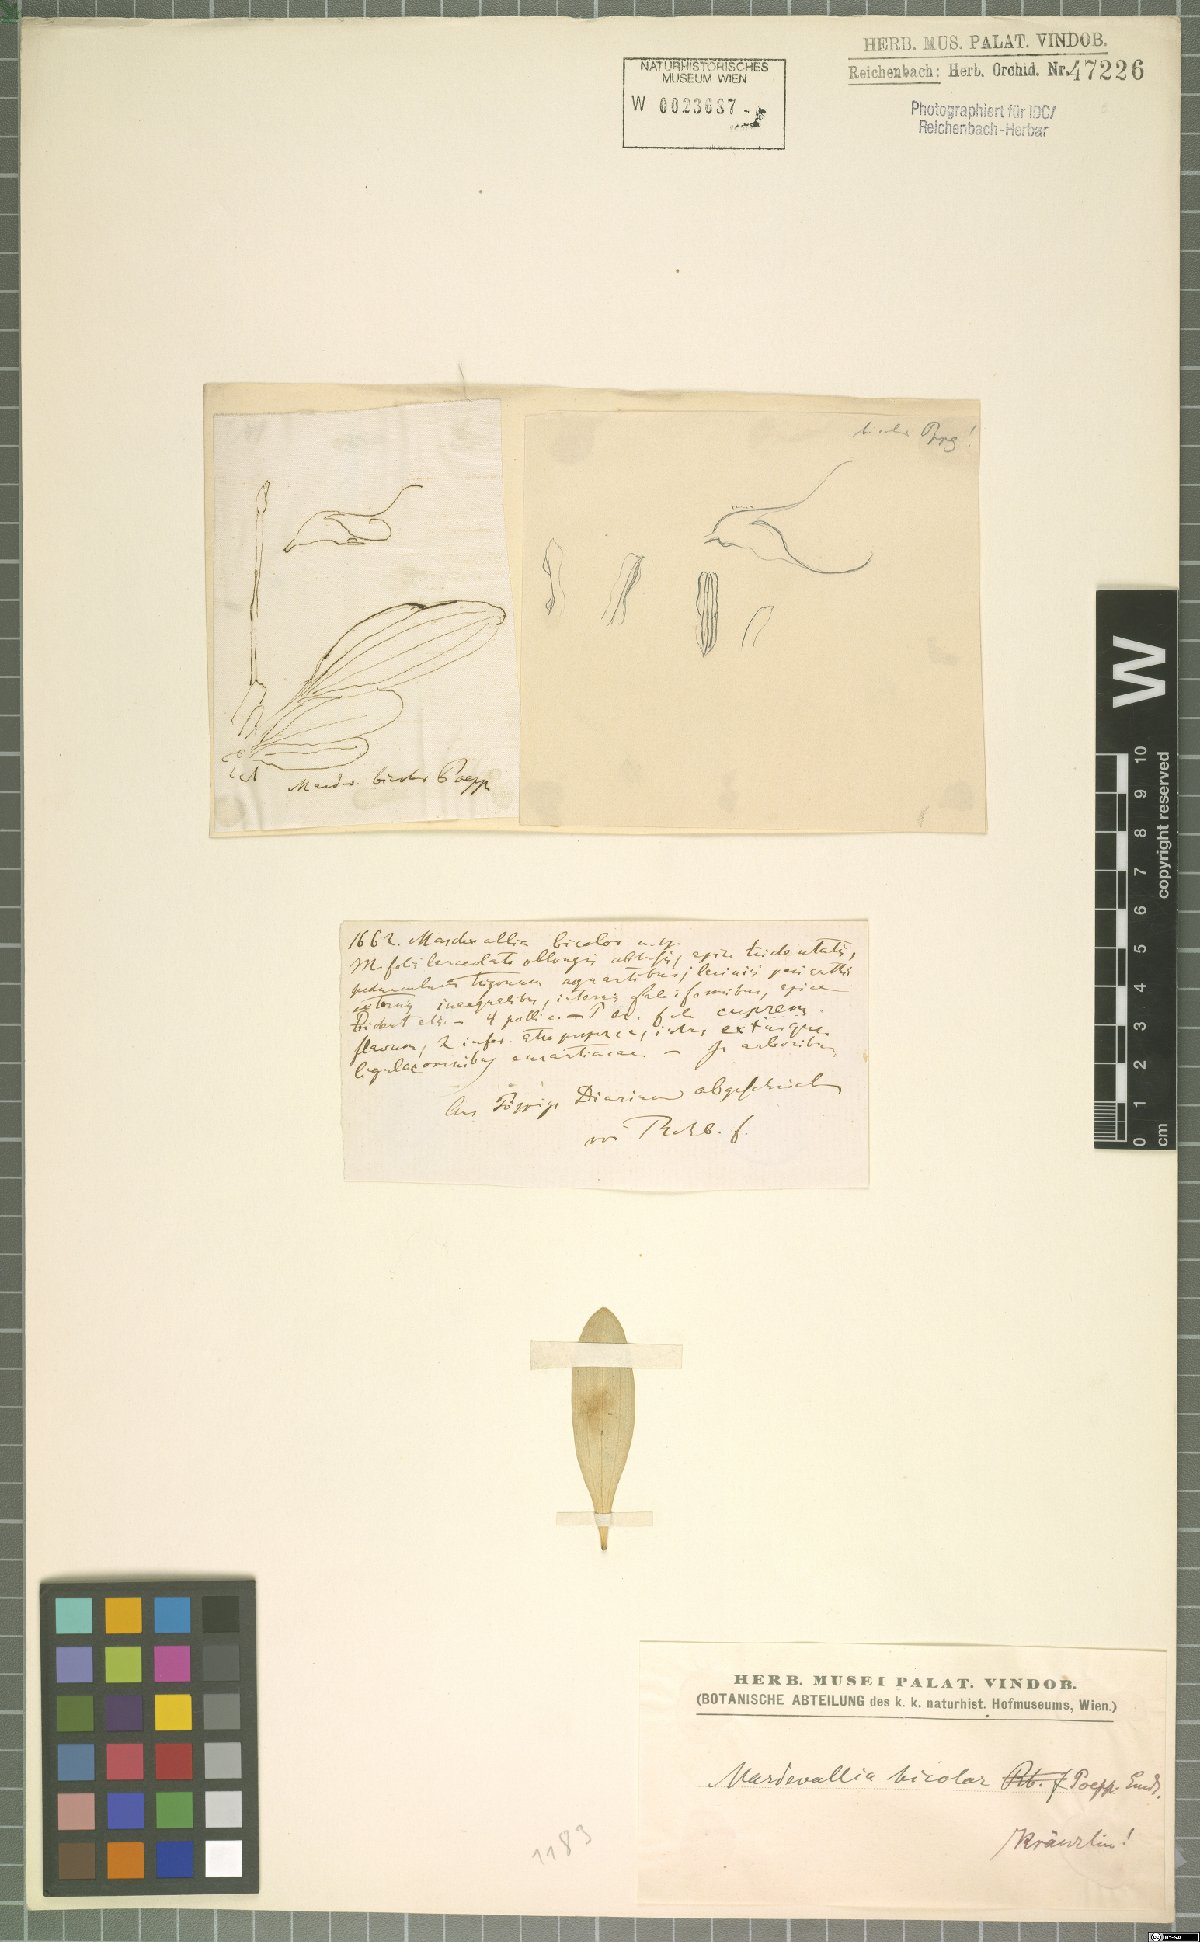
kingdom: Plantae
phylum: Tracheophyta
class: Liliopsida
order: Asparagales
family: Orchidaceae
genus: Masdevallia
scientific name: Masdevallia bicolor
